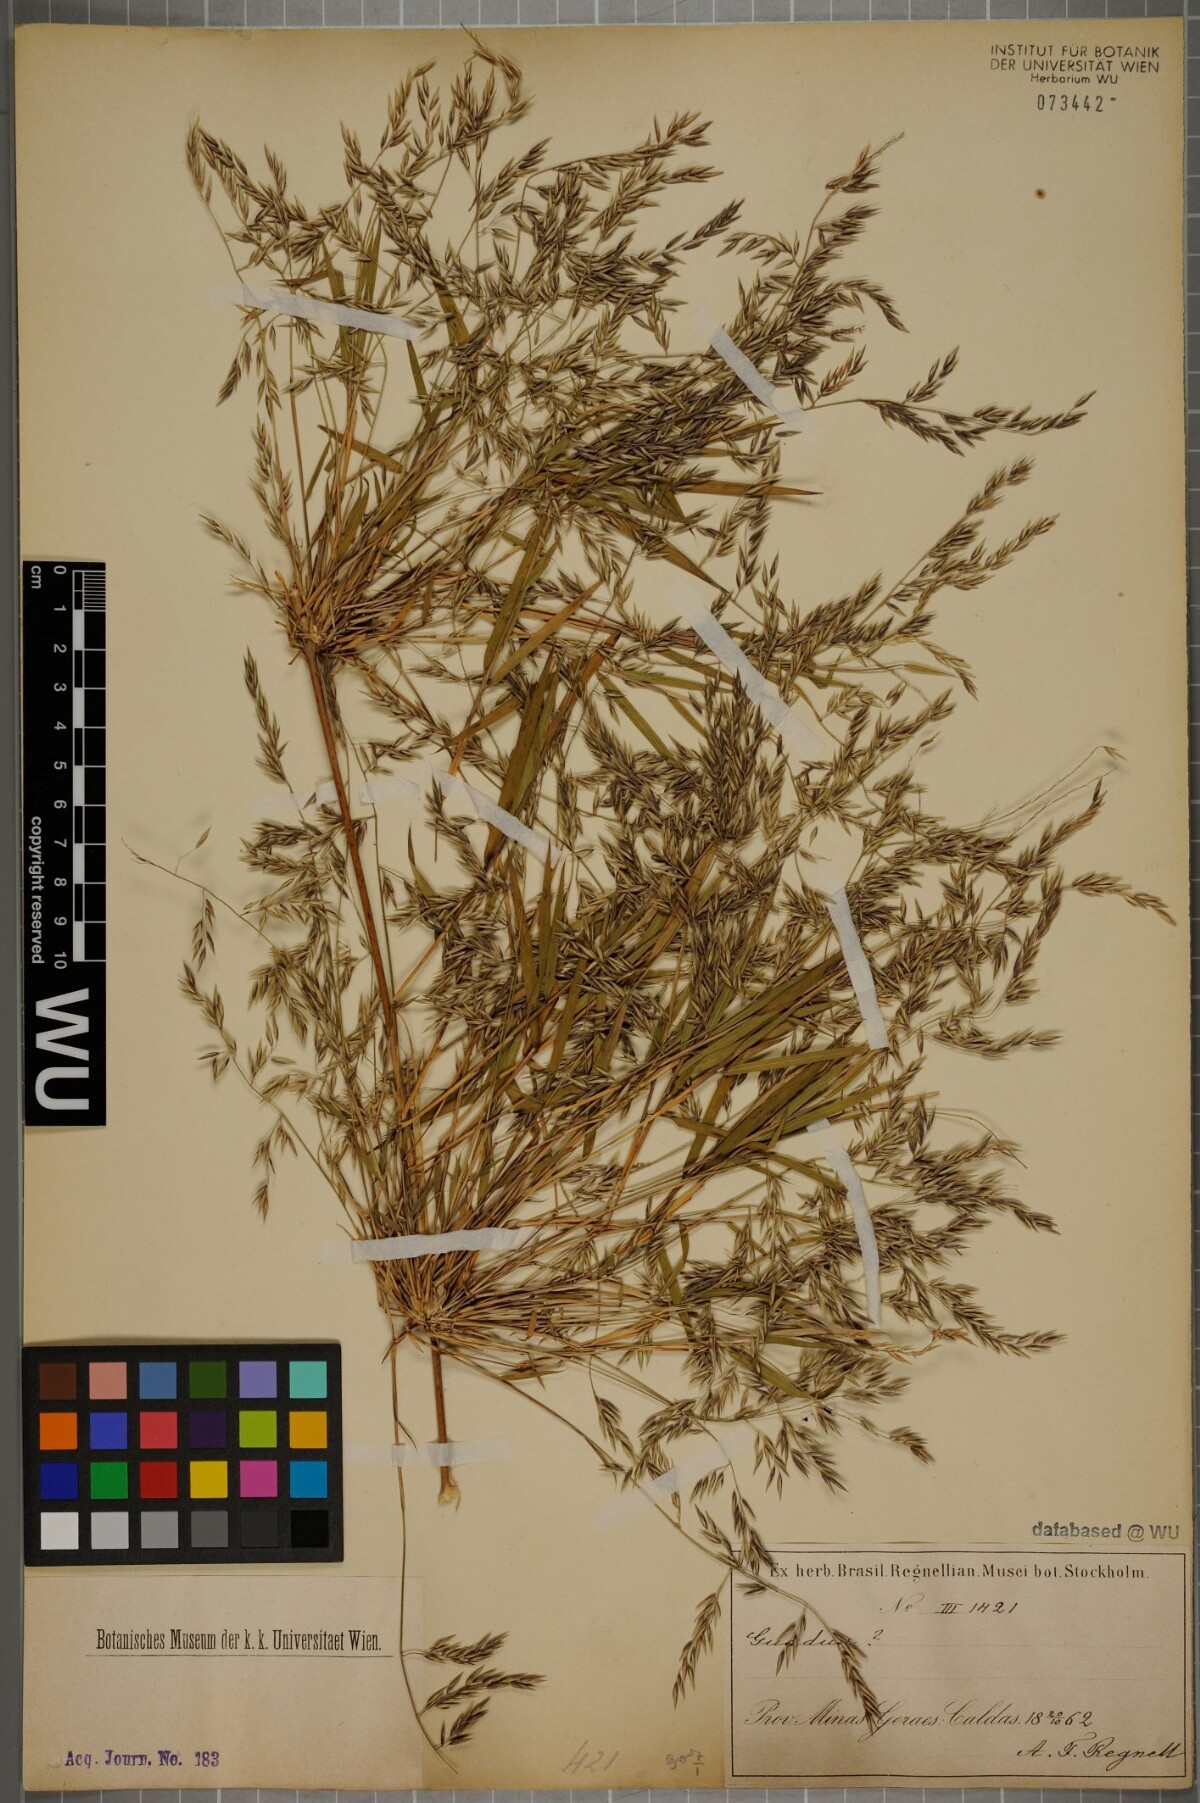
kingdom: Plantae
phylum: Tracheophyta
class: Liliopsida
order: Poales
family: Poaceae
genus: Chusquea
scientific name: Chusquea
